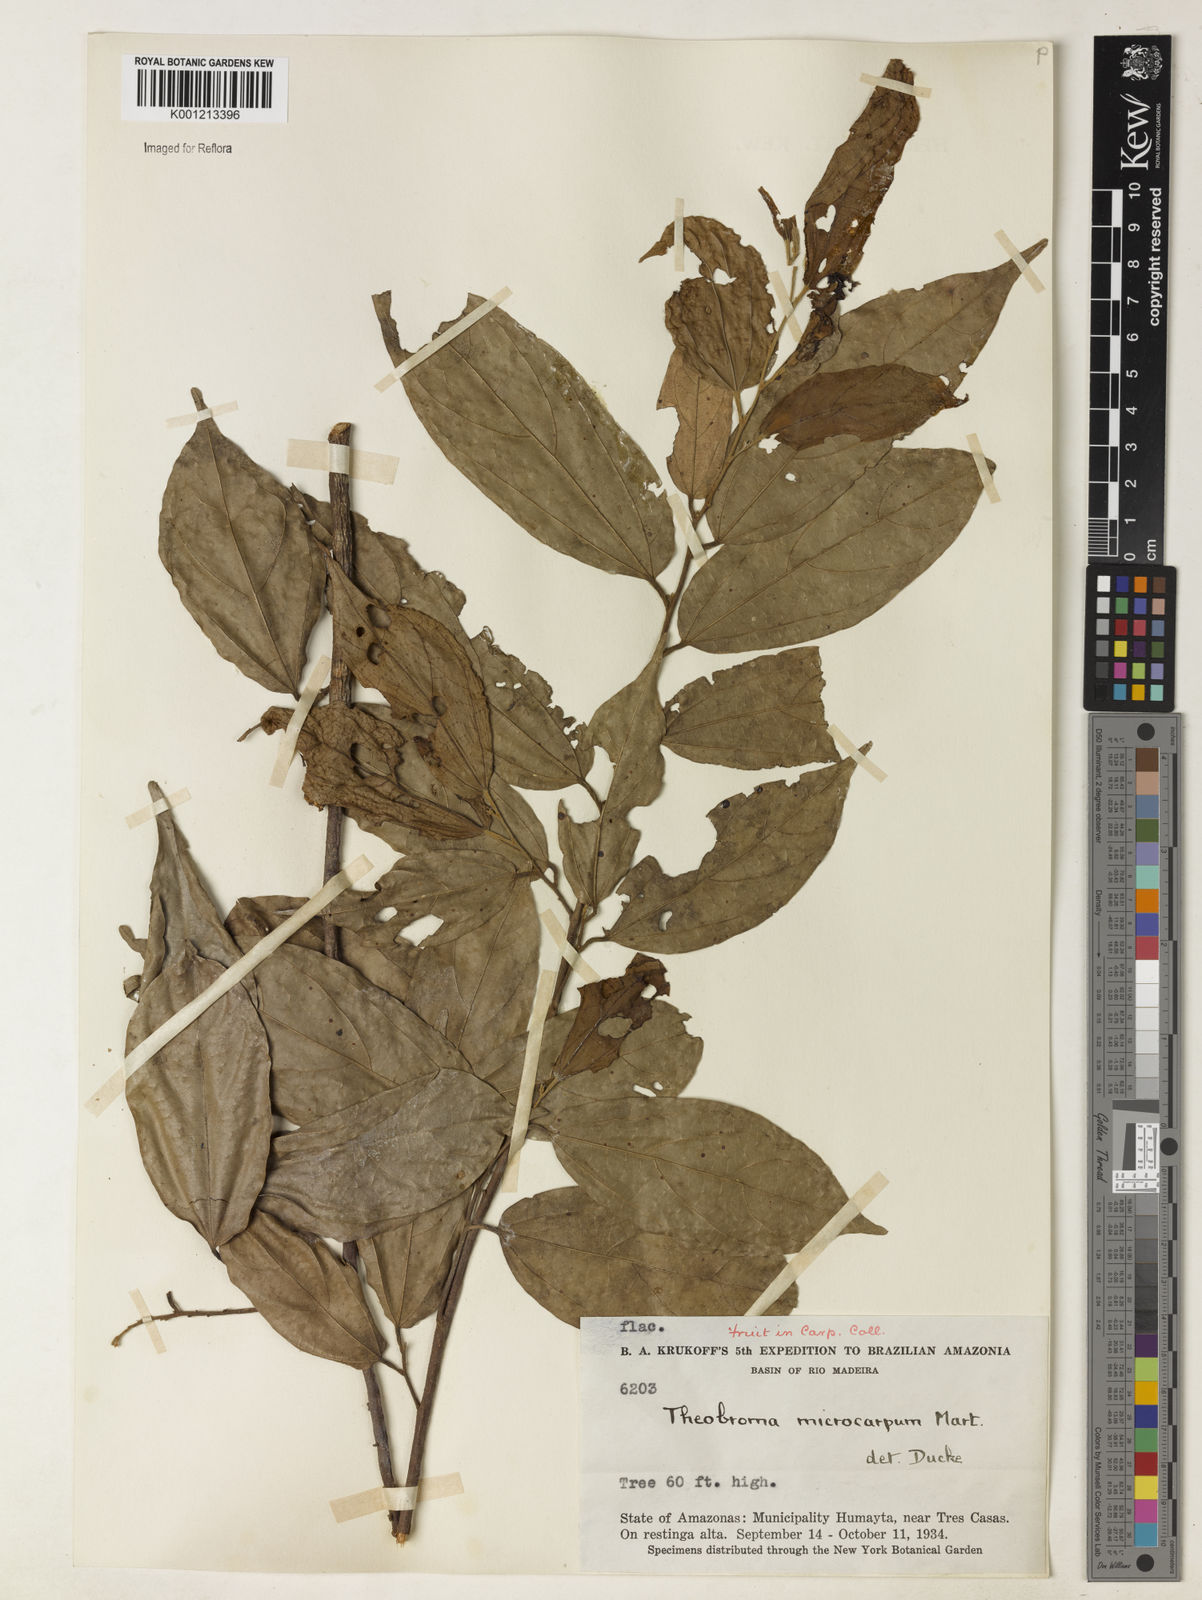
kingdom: Plantae
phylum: Tracheophyta
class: Magnoliopsida
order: Malvales
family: Malvaceae
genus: Theobroma
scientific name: Theobroma microcarpum
